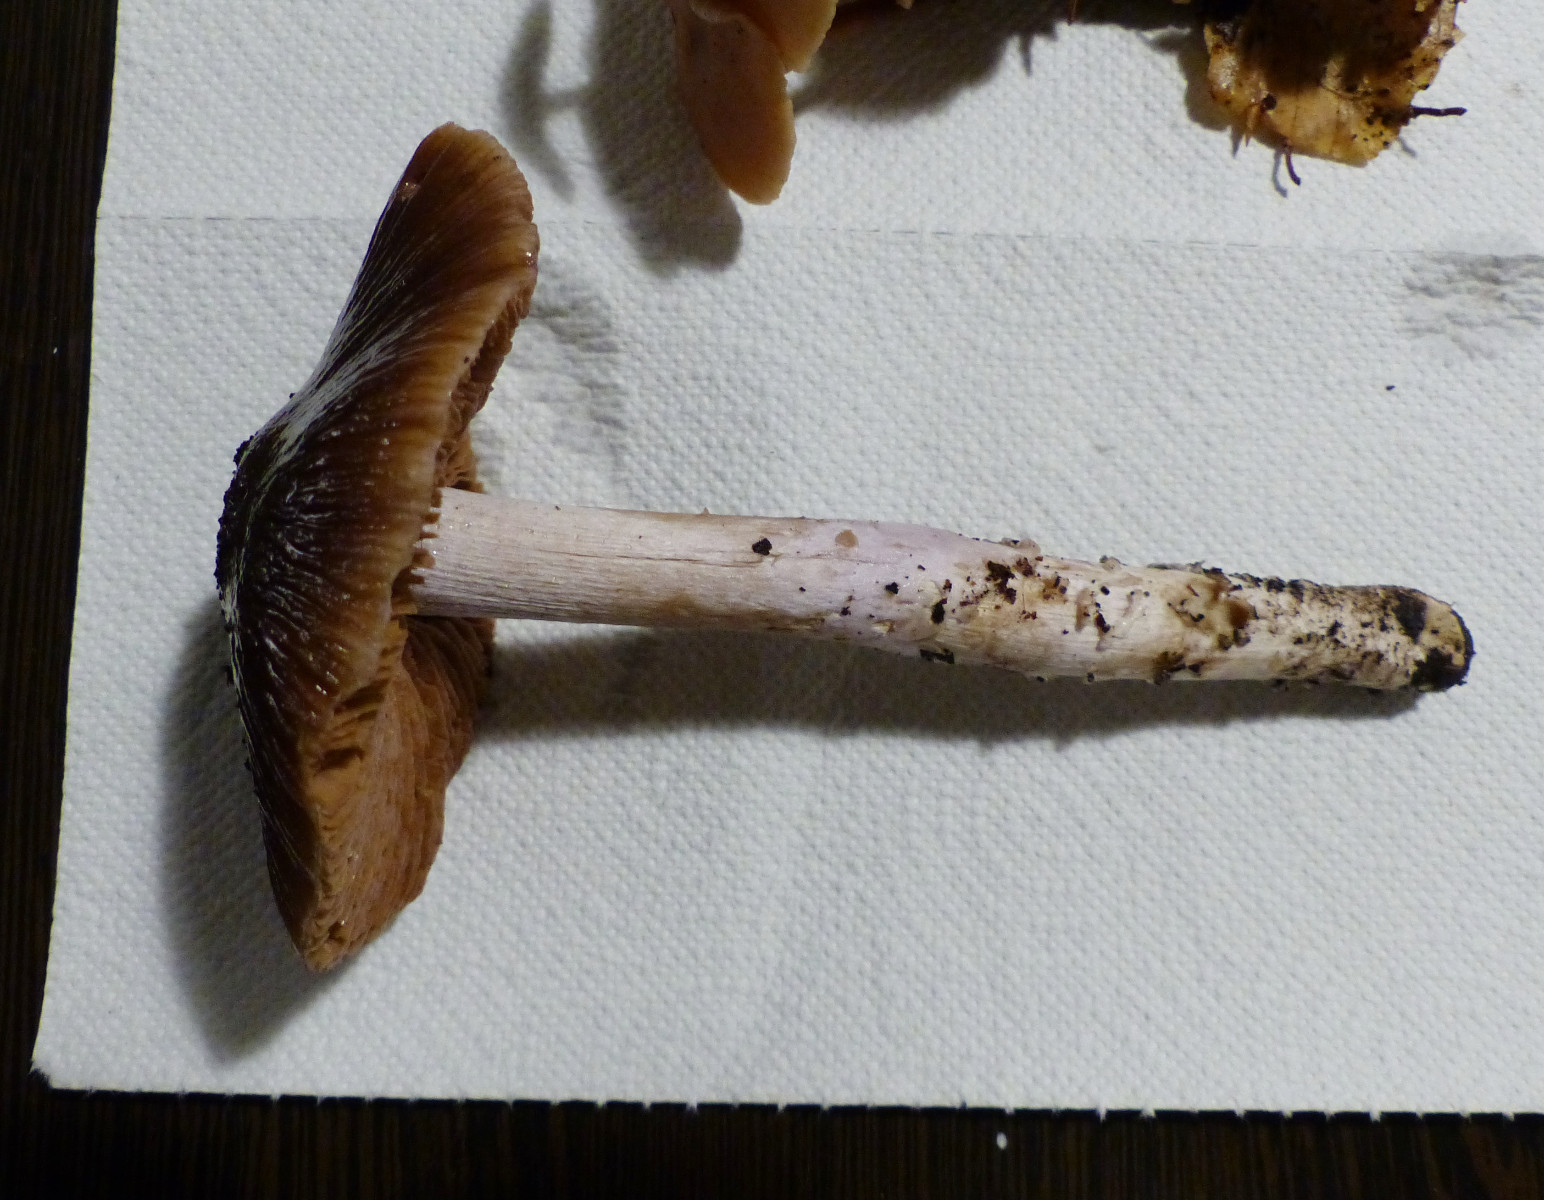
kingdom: Fungi
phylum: Basidiomycota
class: Agaricomycetes
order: Agaricales
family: Cortinariaceae
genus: Cortinarius
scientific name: Cortinarius elatior
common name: høj slørhat
